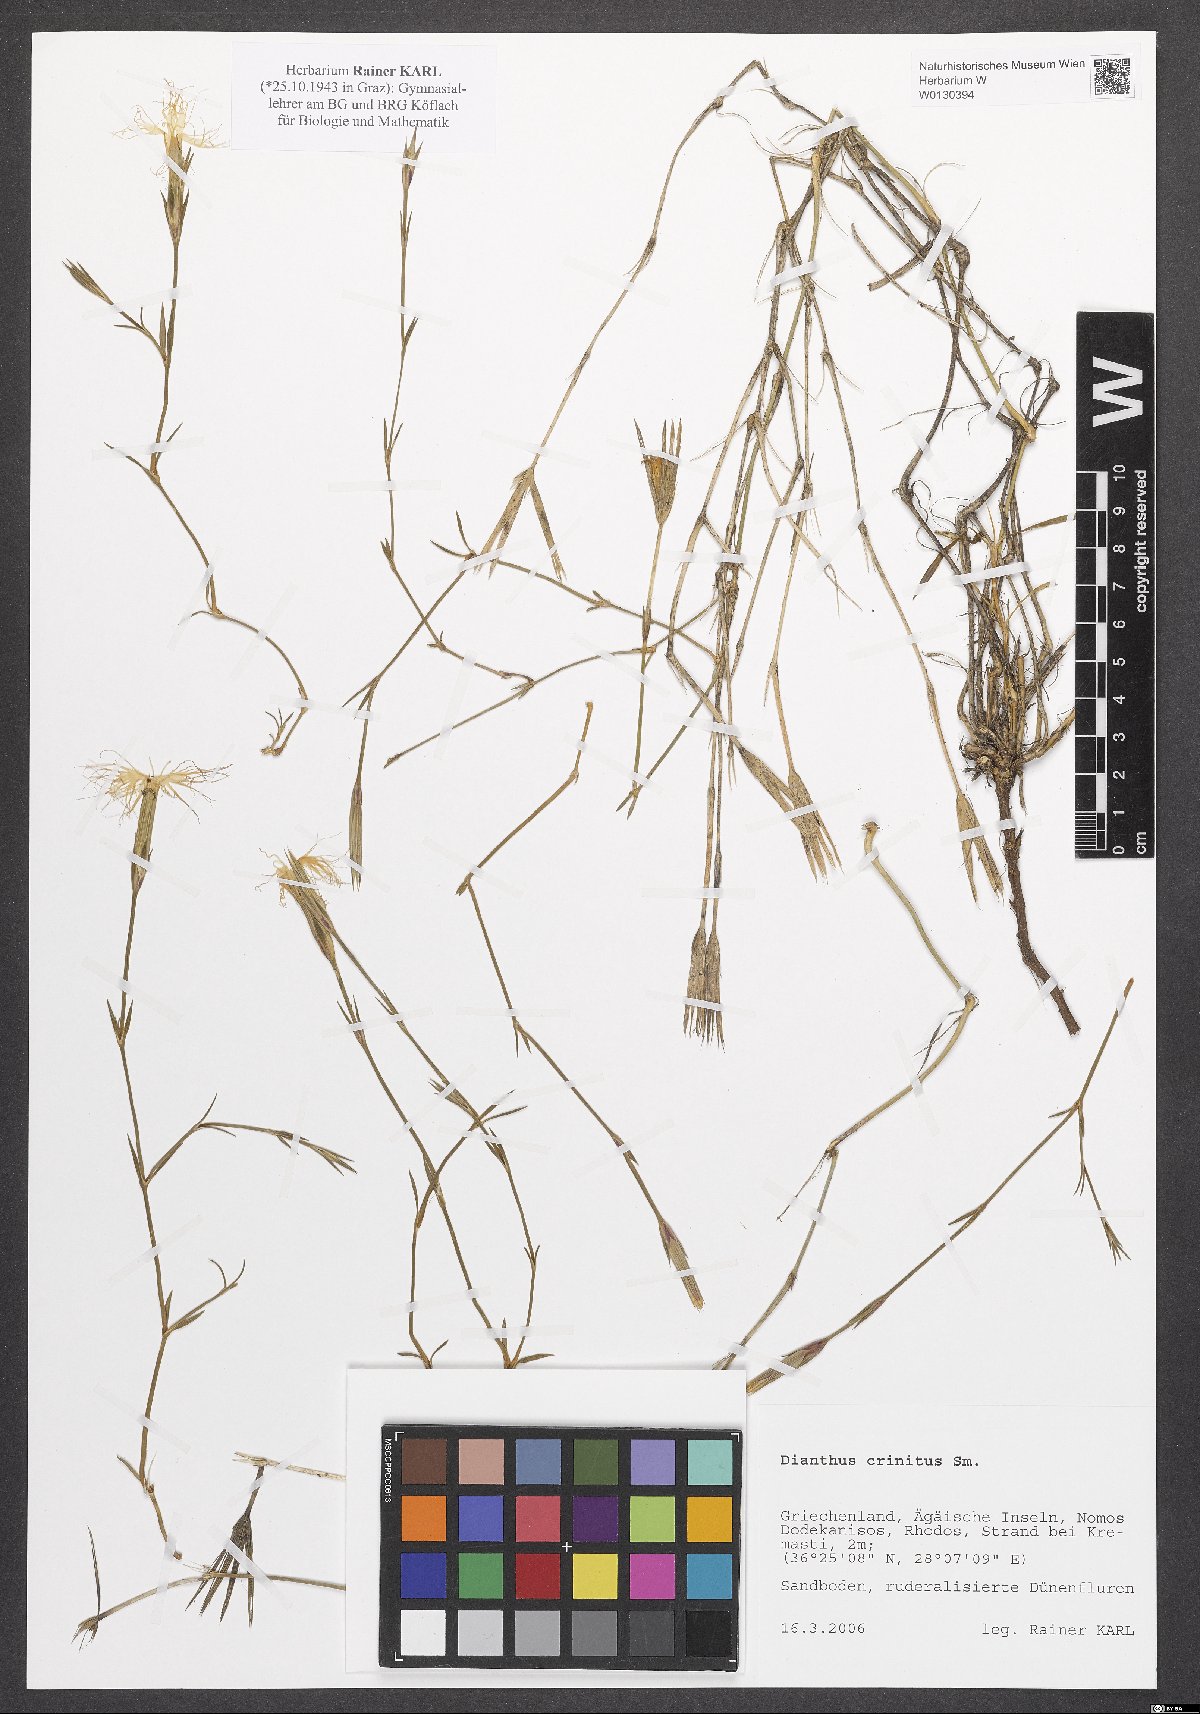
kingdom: Plantae
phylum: Tracheophyta
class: Magnoliopsida
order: Caryophyllales
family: Caryophyllaceae
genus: Dianthus
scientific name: Dianthus crinitus
